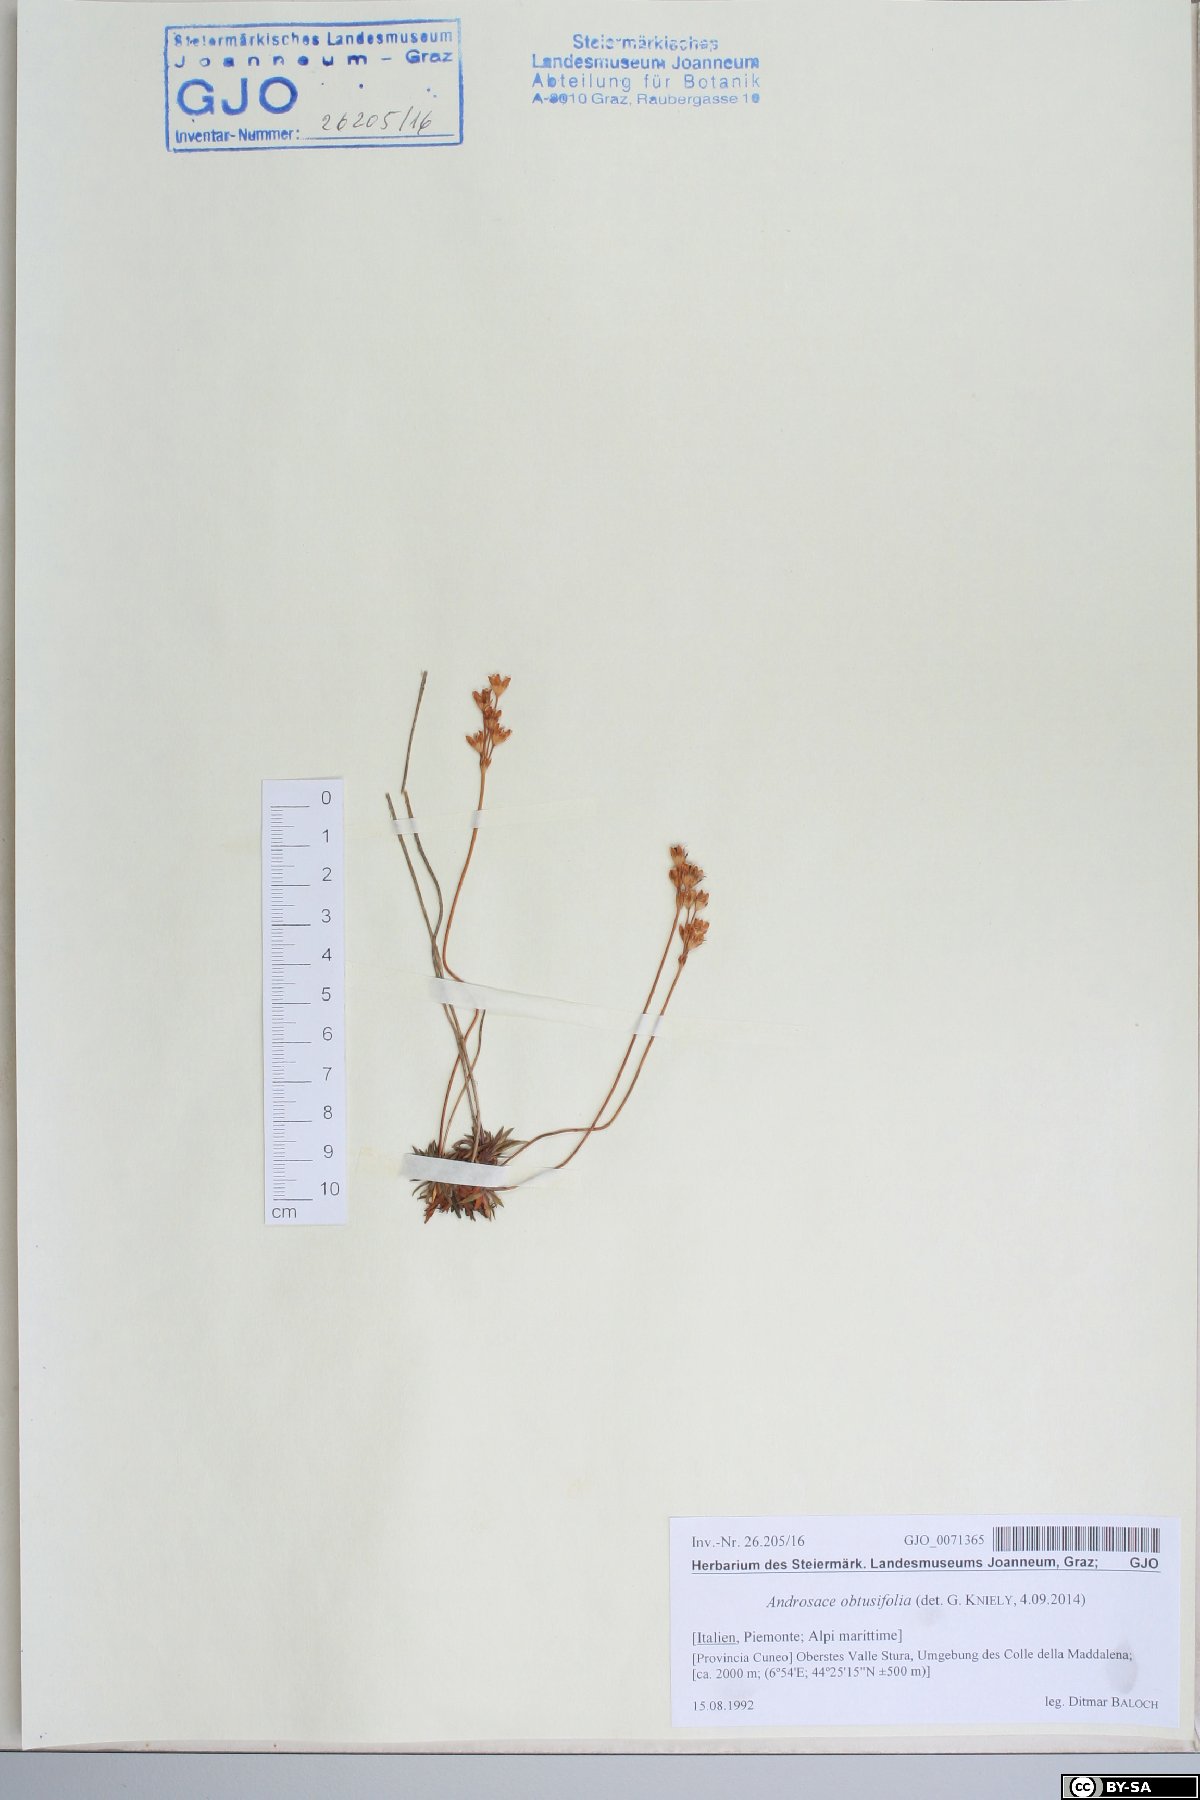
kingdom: Plantae
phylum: Tracheophyta
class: Magnoliopsida
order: Ericales
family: Primulaceae
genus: Androsace
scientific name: Androsace obtusifolia
